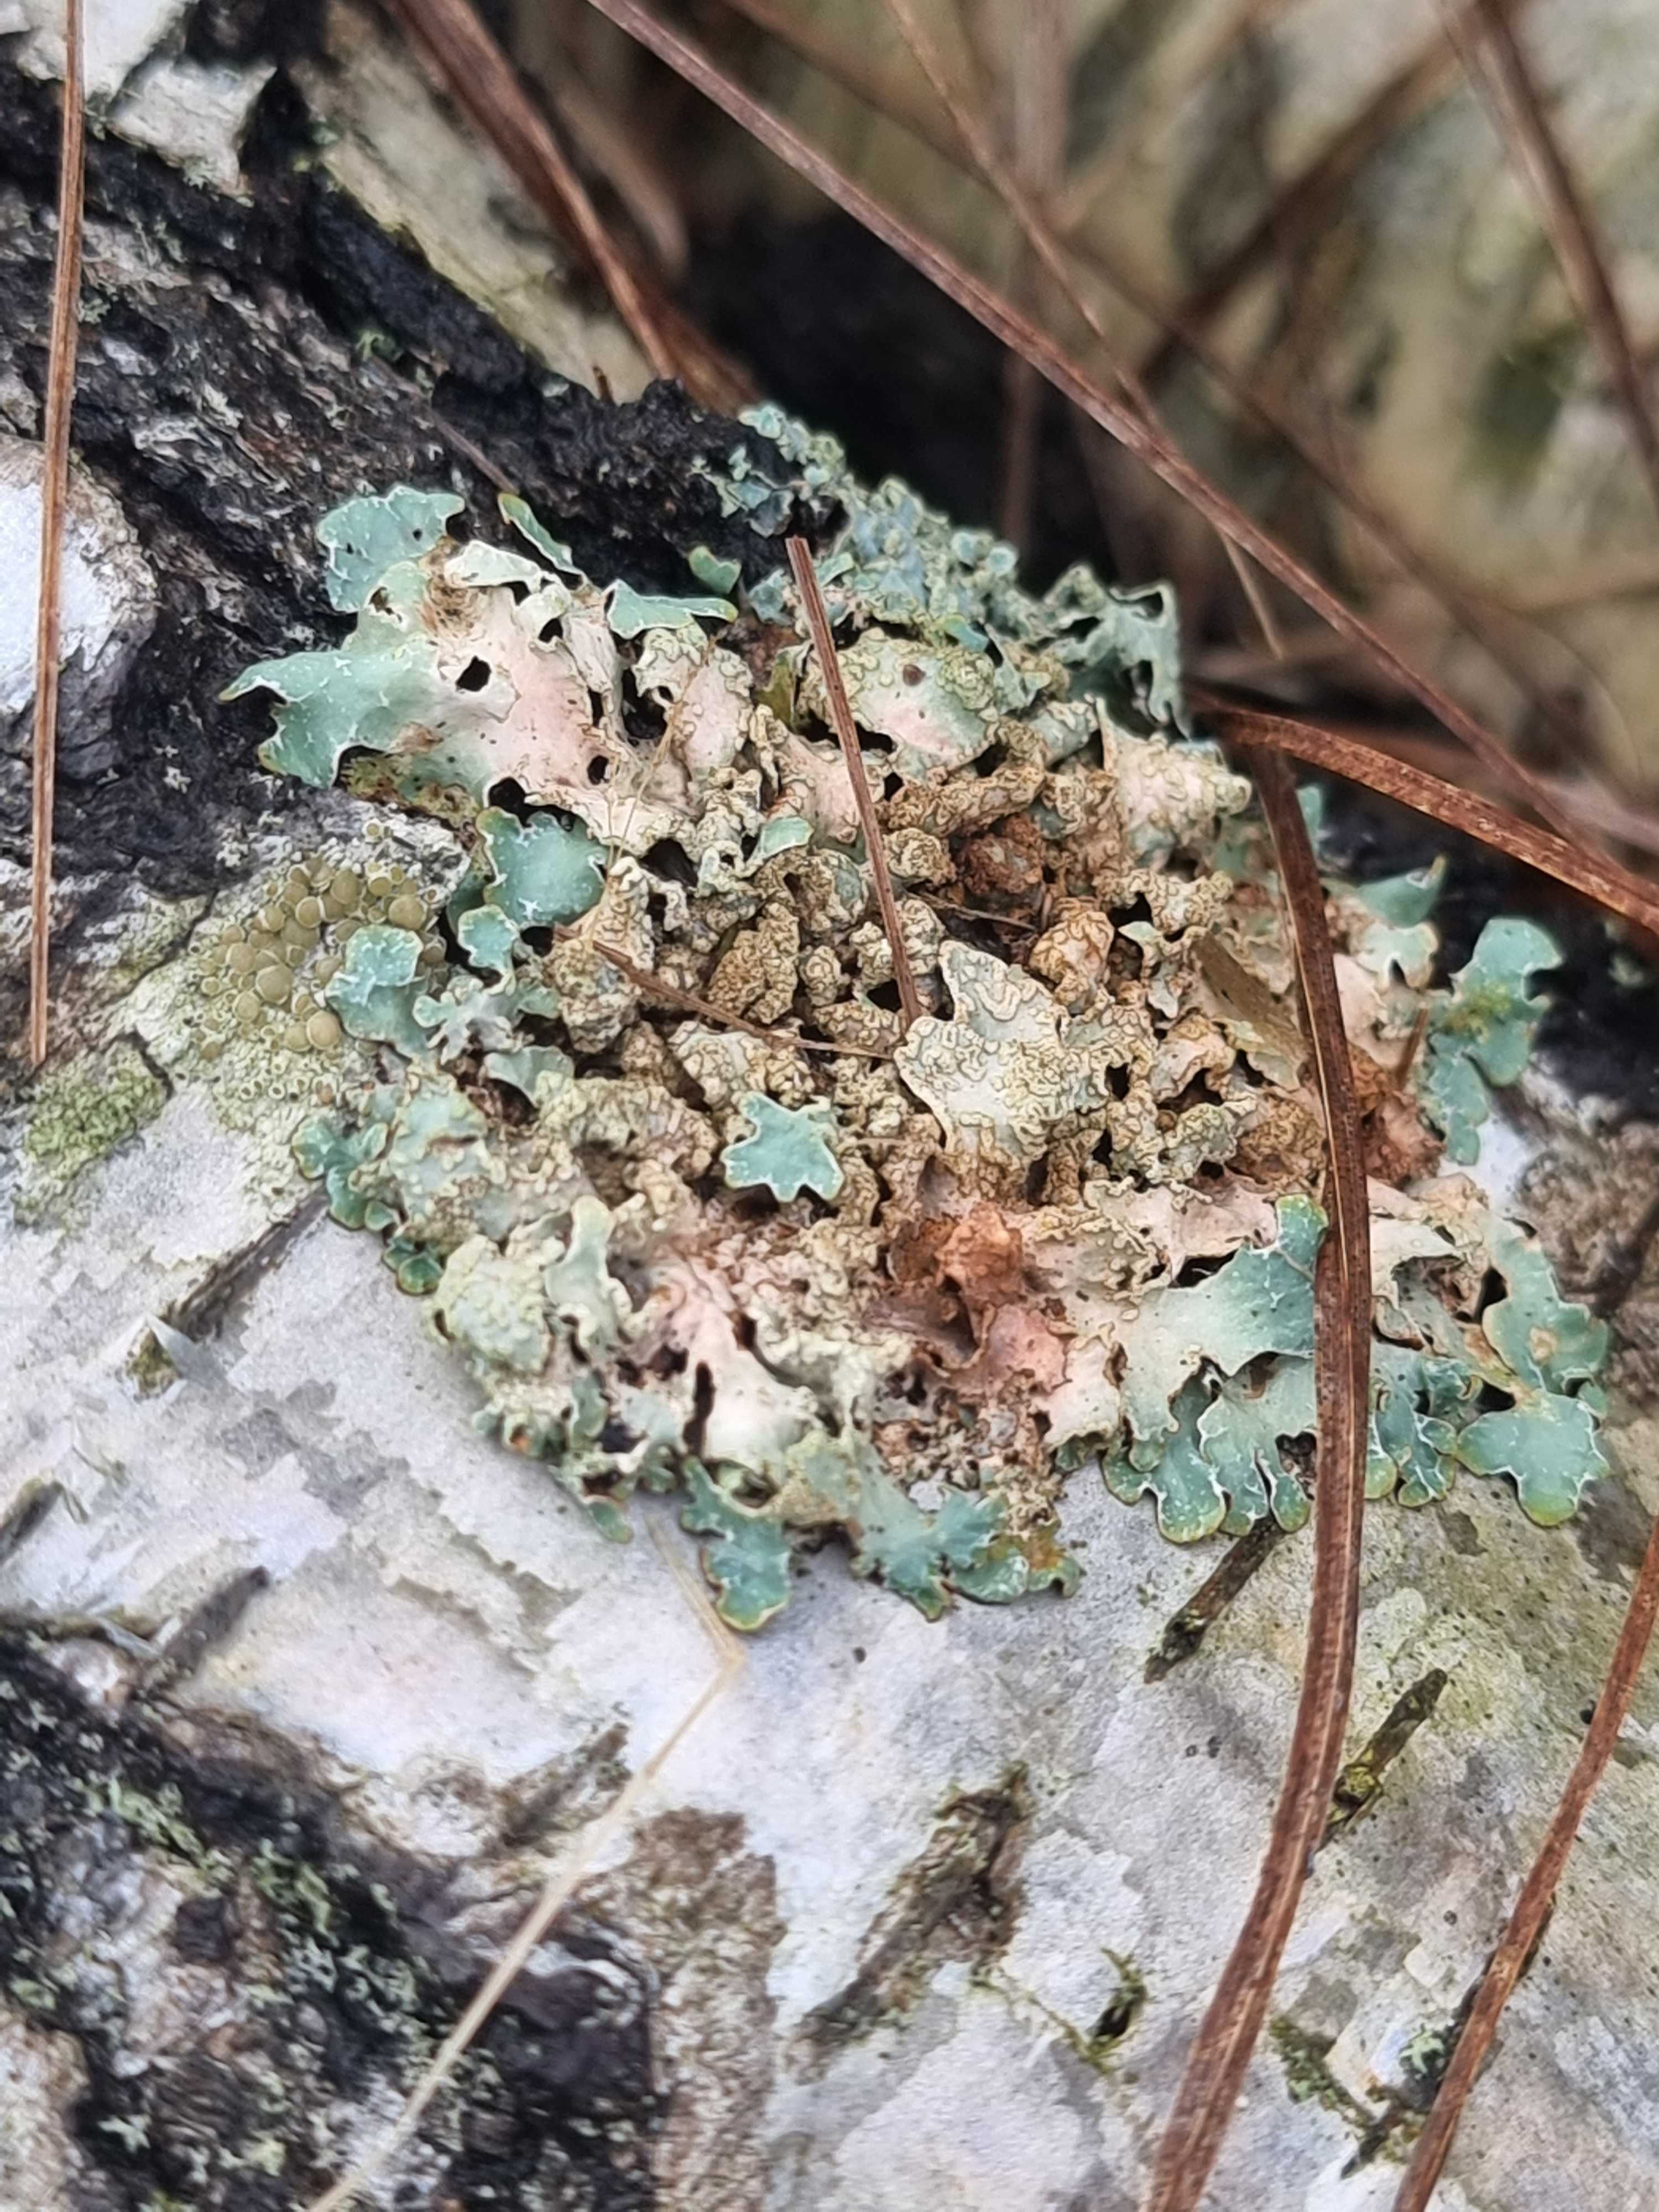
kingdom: Fungi
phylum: Ascomycota
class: Lecanoromycetes
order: Lecanorales
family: Parmeliaceae
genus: Parmelia
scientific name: Parmelia sulcata
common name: rynket skållav
